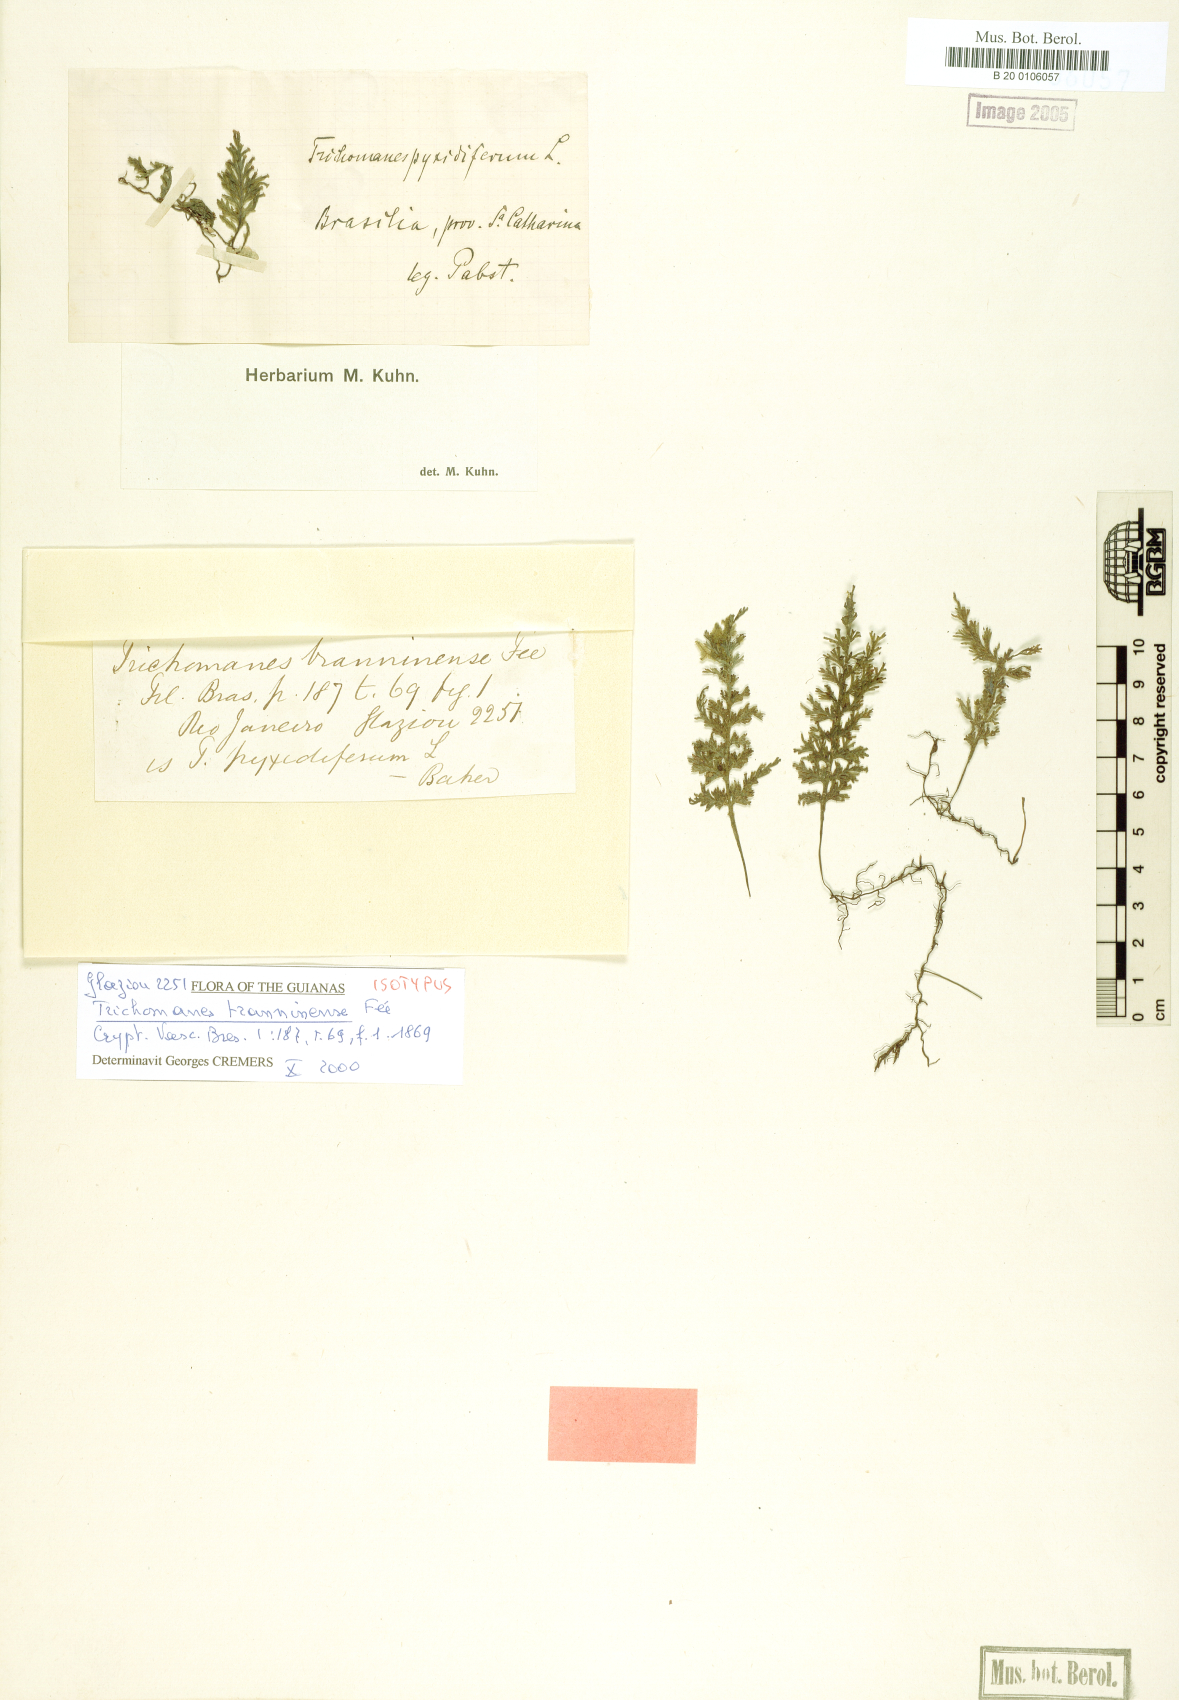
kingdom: Plantae
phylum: Tracheophyta
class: Polypodiopsida
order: Hymenophyllales
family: Hymenophyllaceae
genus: Polyphlebium
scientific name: Polyphlebium pyxidiferum
